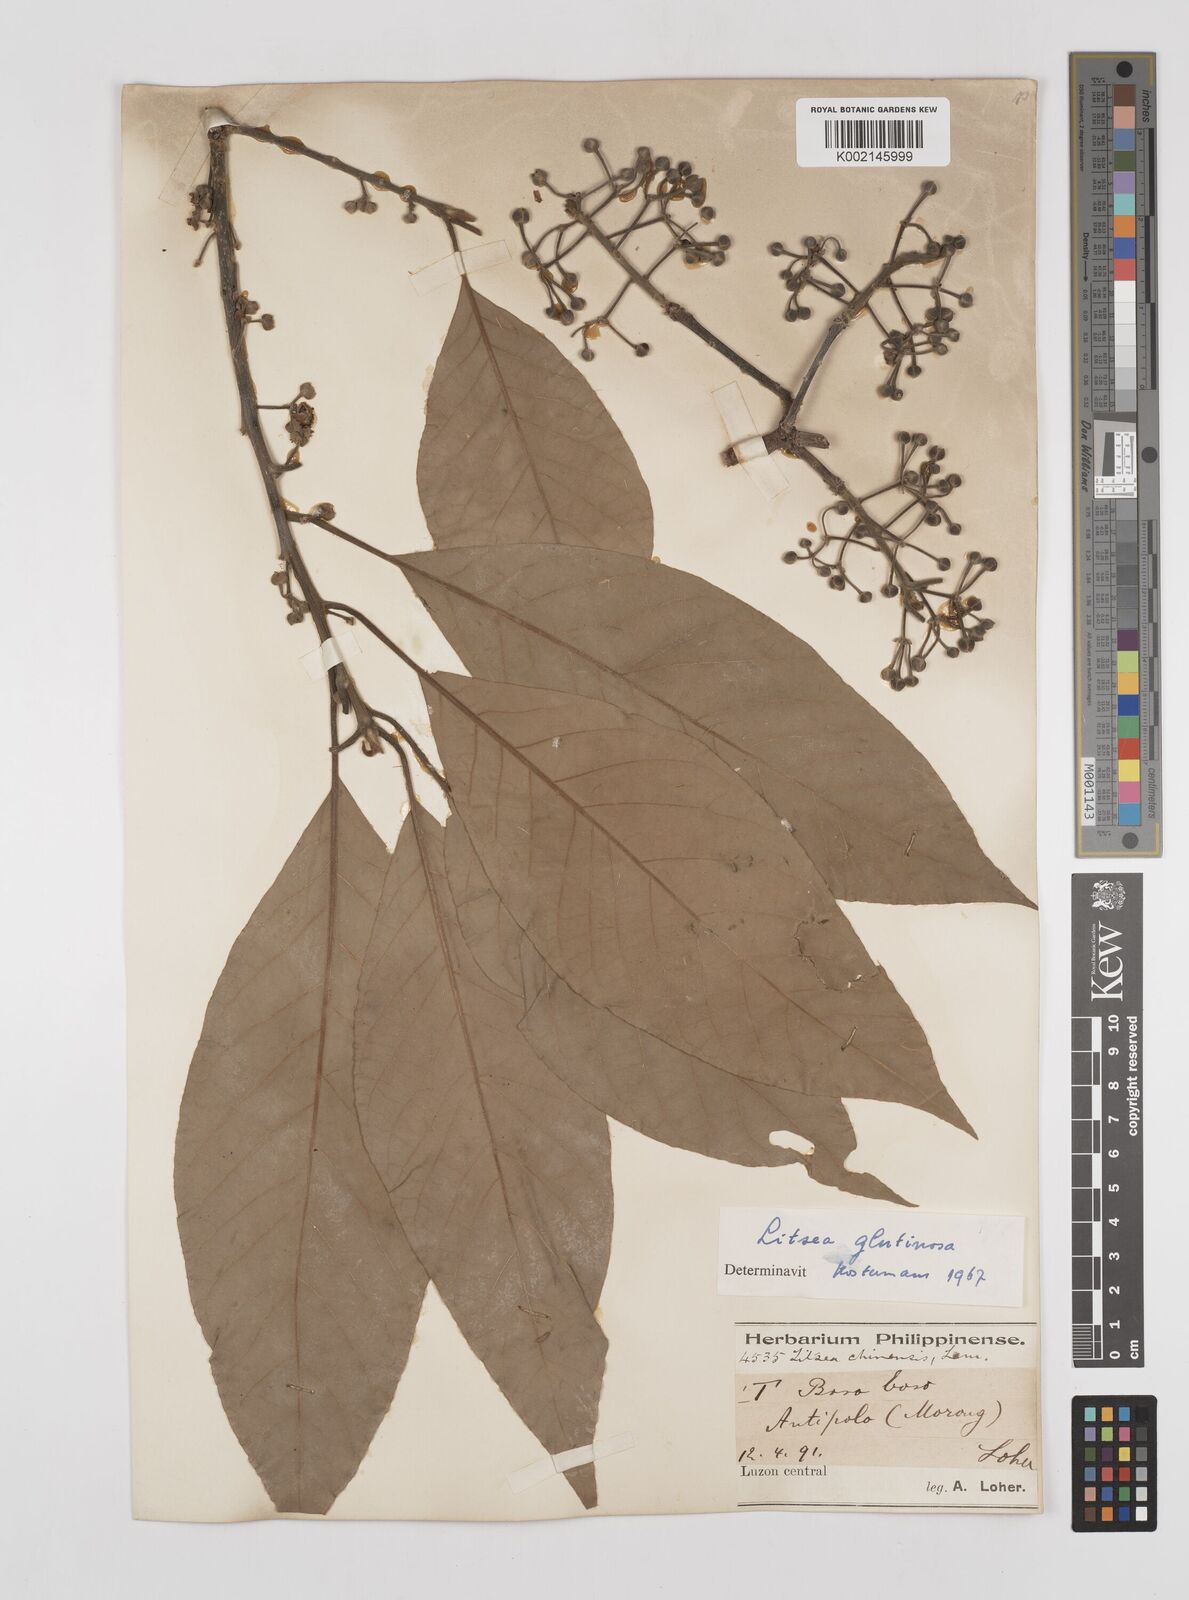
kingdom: Plantae
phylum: Tracheophyta
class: Magnoliopsida
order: Laurales
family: Lauraceae
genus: Litsea
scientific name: Litsea glutinosa
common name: Indian-laurel
